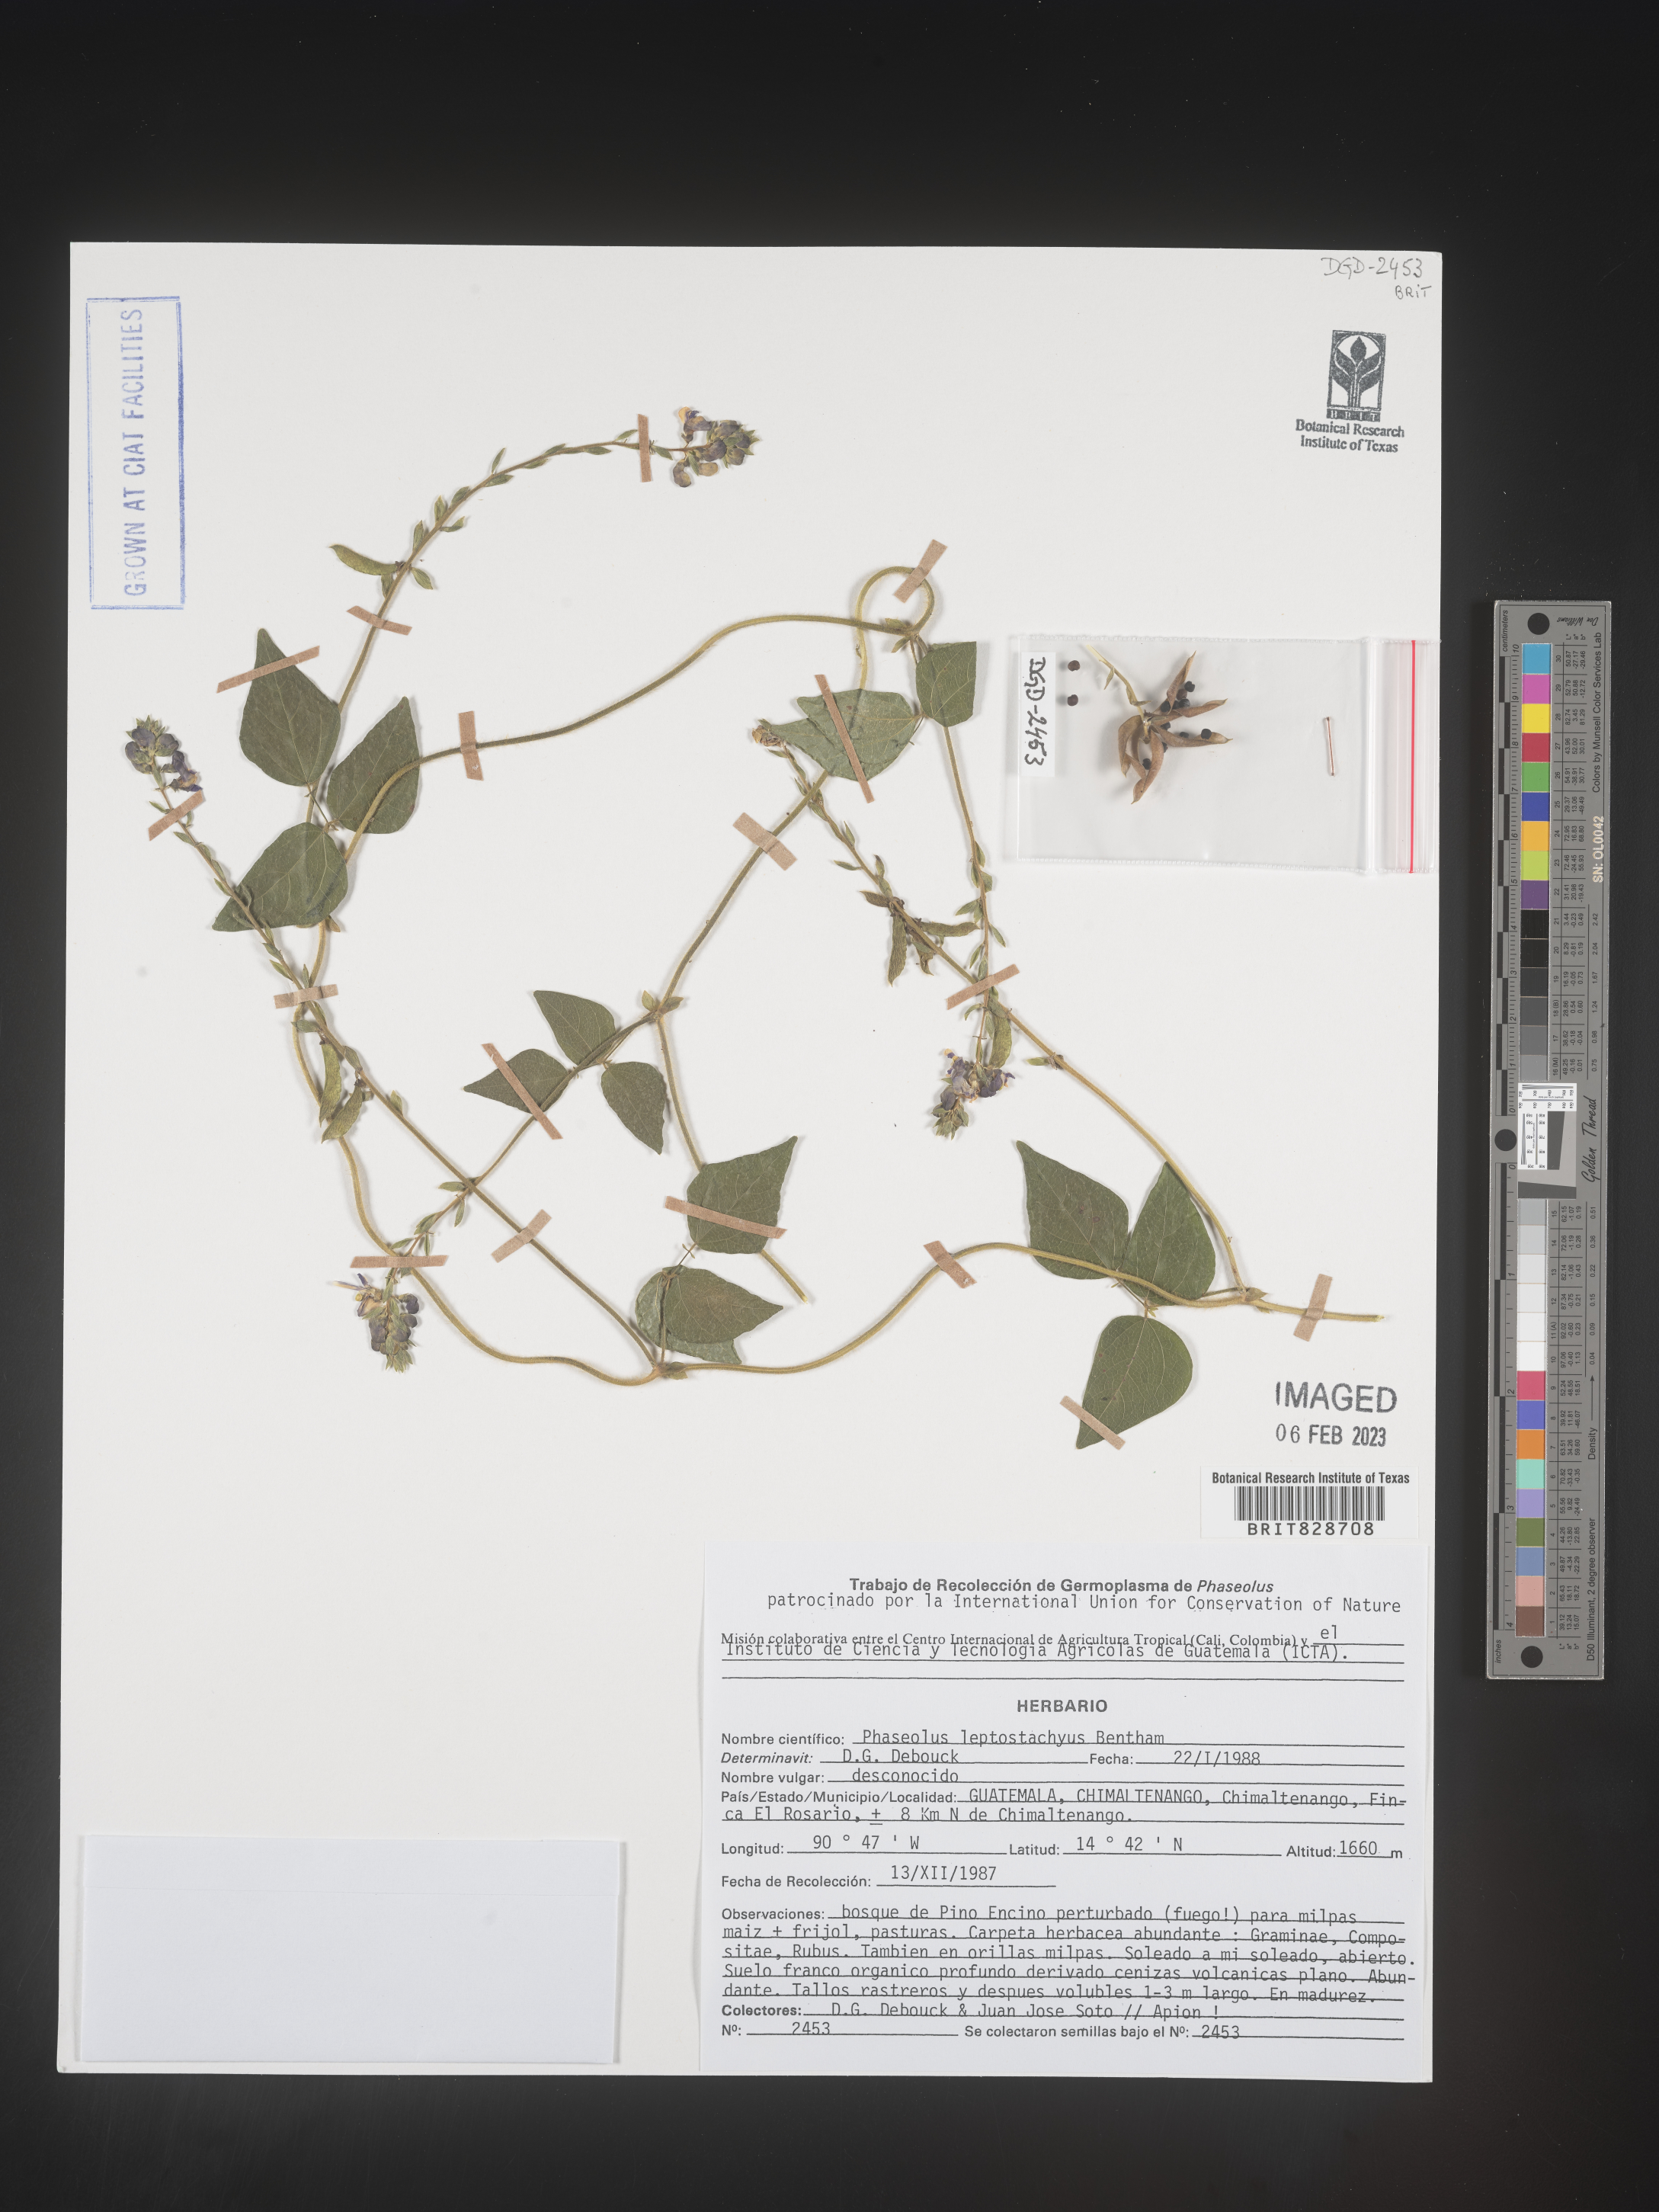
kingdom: Plantae
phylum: Tracheophyta
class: Magnoliopsida
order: Fabales
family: Fabaceae
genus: Phaseolus
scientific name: Phaseolus
